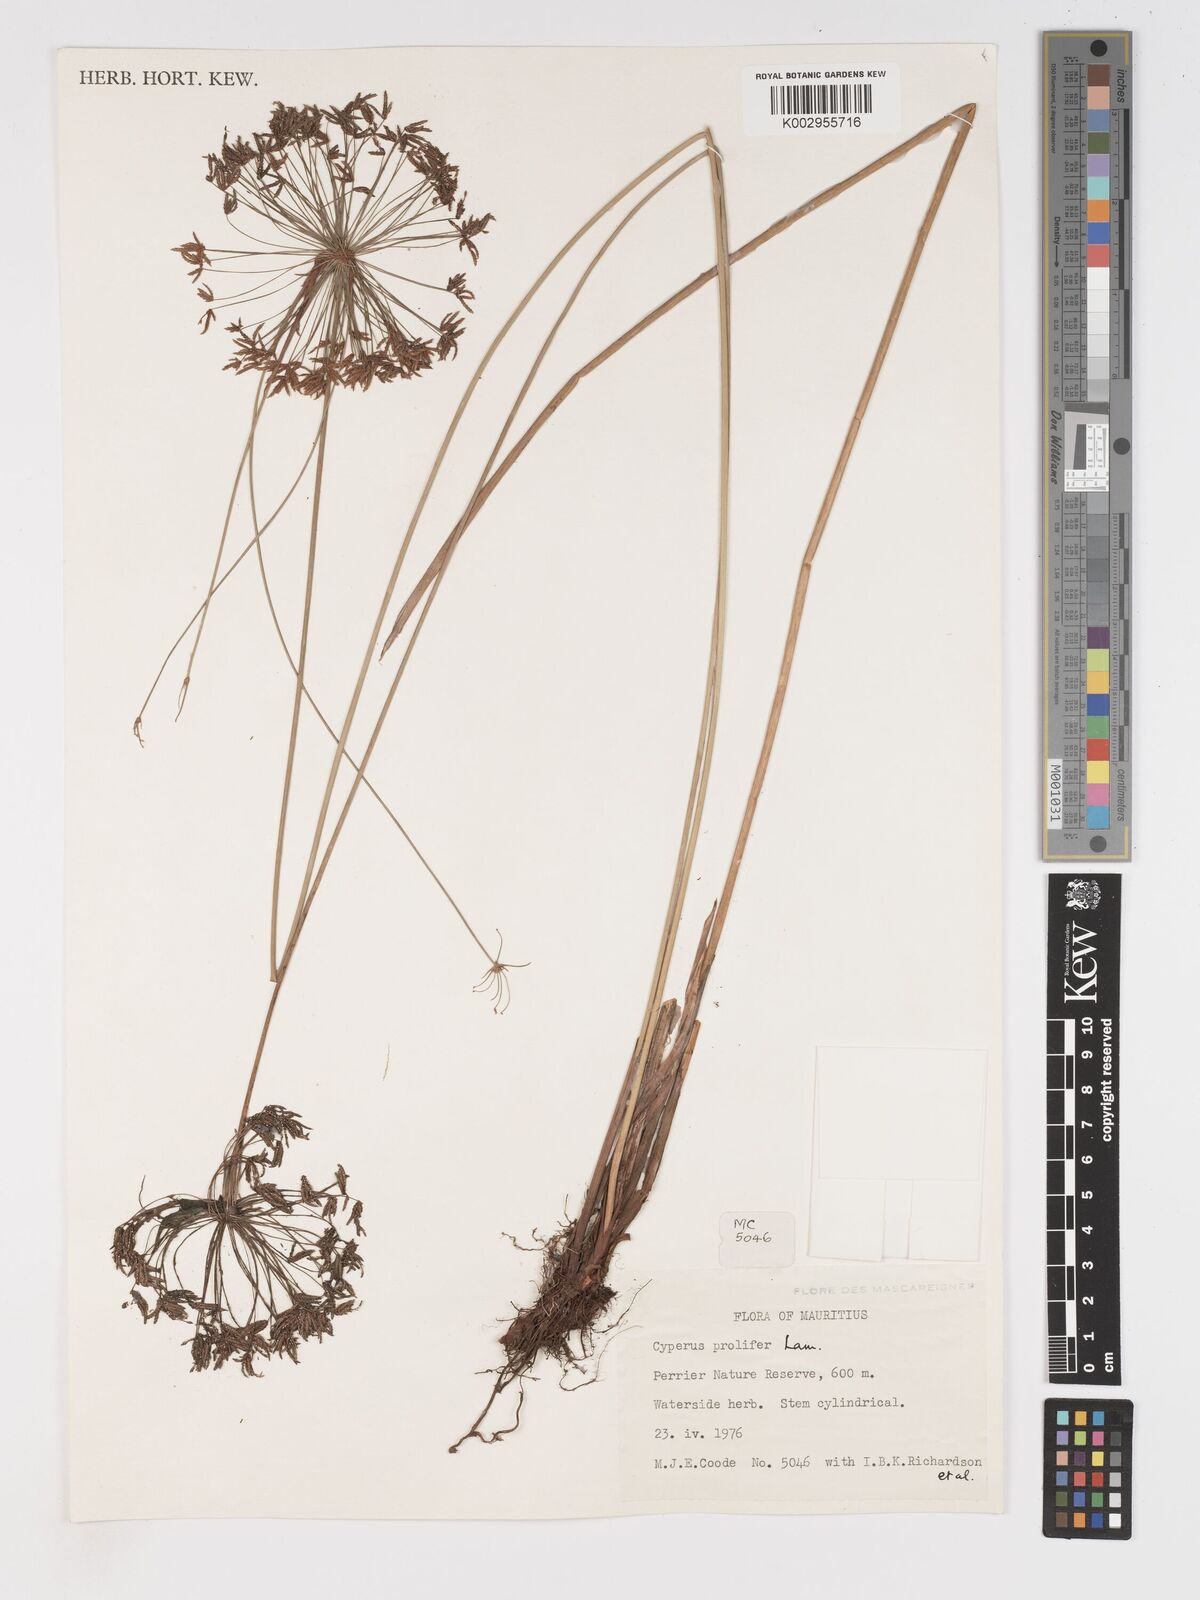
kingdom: Plantae
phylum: Tracheophyta
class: Liliopsida
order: Poales
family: Cyperaceae
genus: Cyperus
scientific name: Cyperus prolifer
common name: Miniature flatsedge
